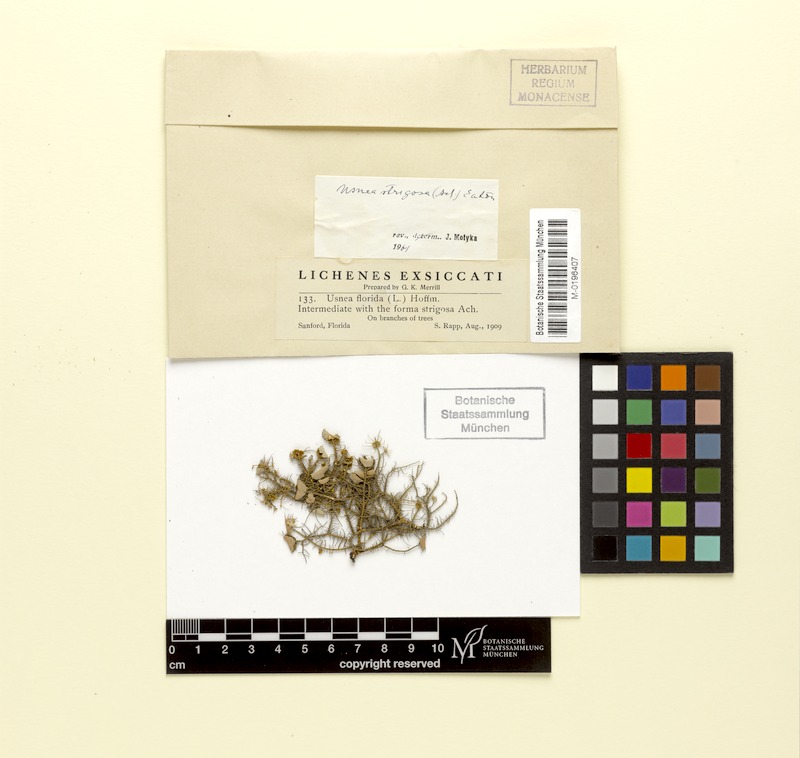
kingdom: Fungi
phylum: Ascomycota
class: Lecanoromycetes
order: Lecanorales
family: Parmeliaceae
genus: Usnea
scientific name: Usnea strigosa
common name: Bushy beard lichen
